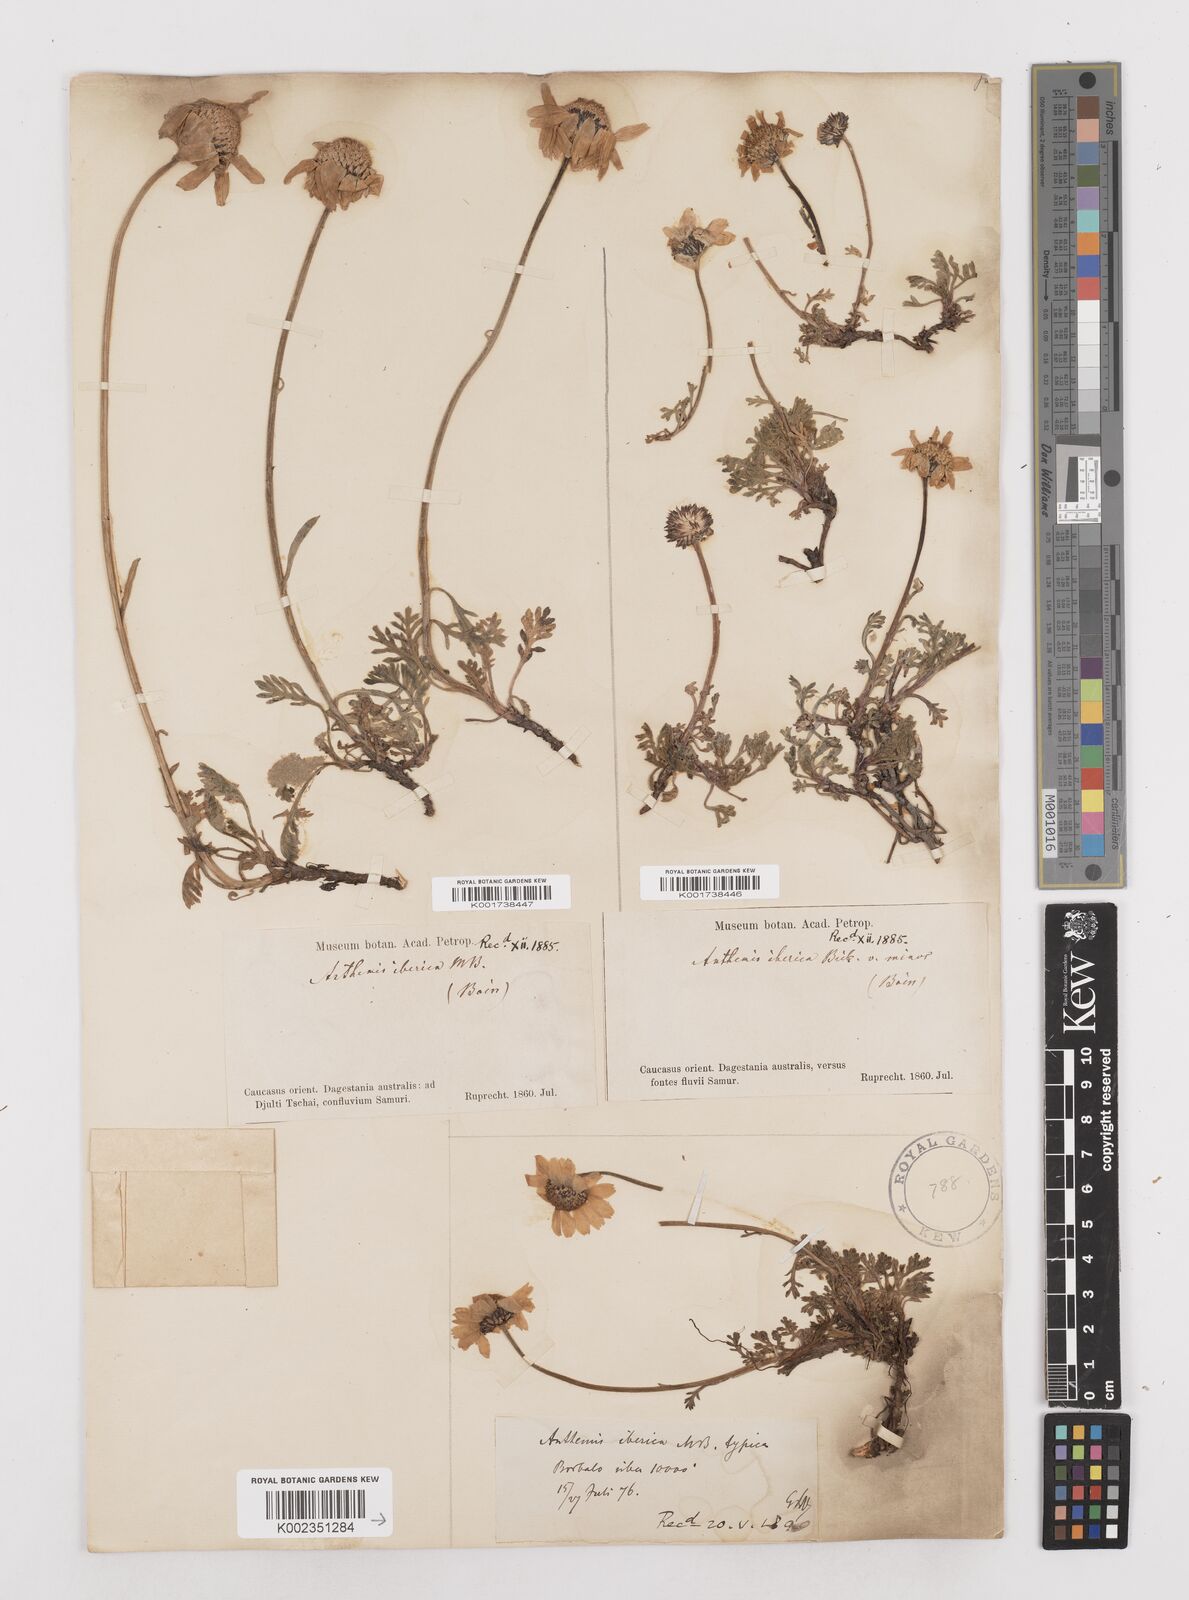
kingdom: Plantae
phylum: Tracheophyta
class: Magnoliopsida
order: Asterales
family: Asteraceae
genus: Anthemis
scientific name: Anthemis cretica
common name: Mountain dog-daisy
